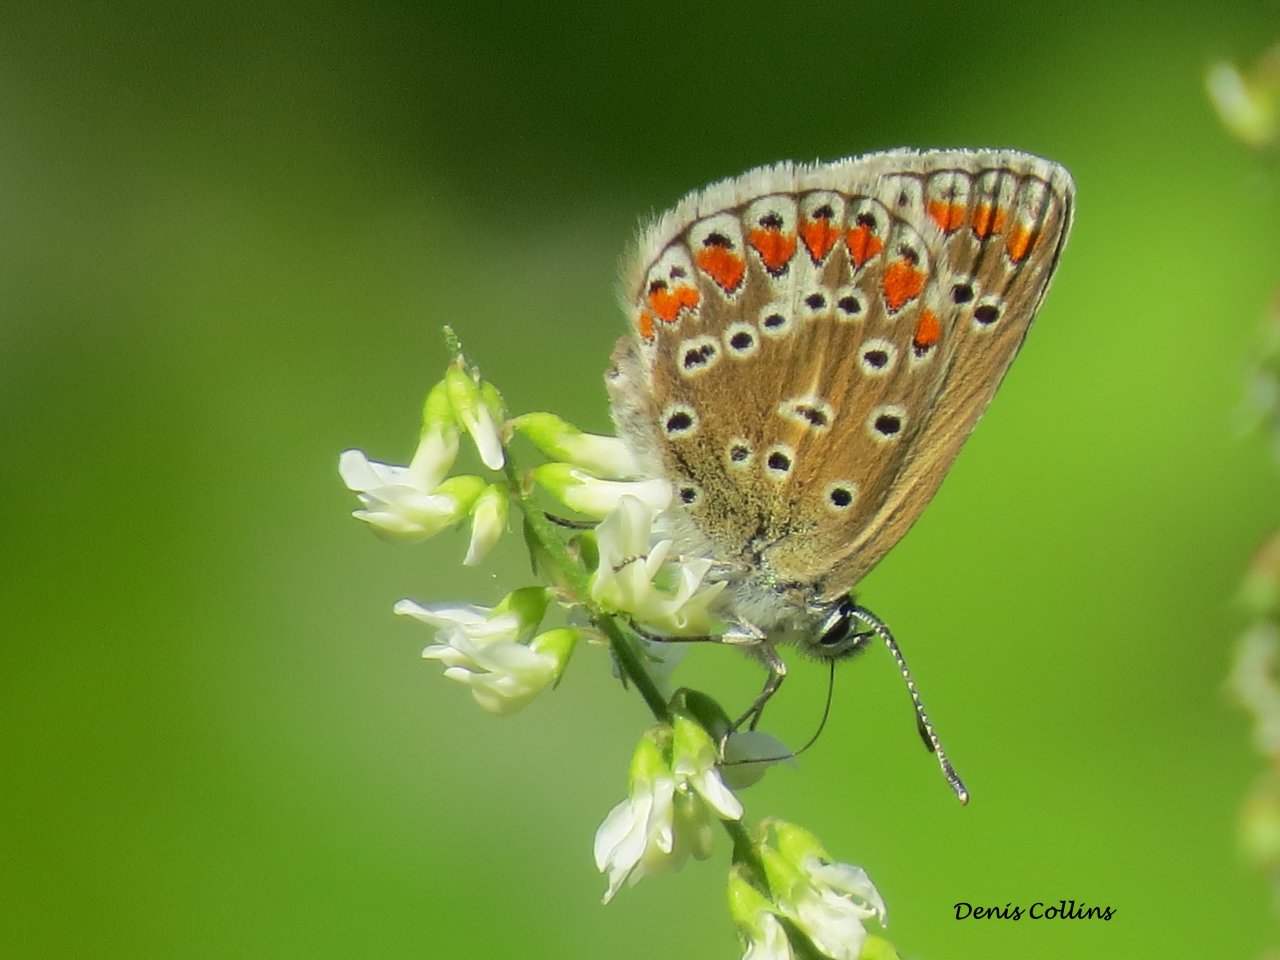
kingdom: Animalia
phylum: Arthropoda
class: Insecta
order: Lepidoptera
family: Lycaenidae
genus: Polyommatus
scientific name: Polyommatus icarus
